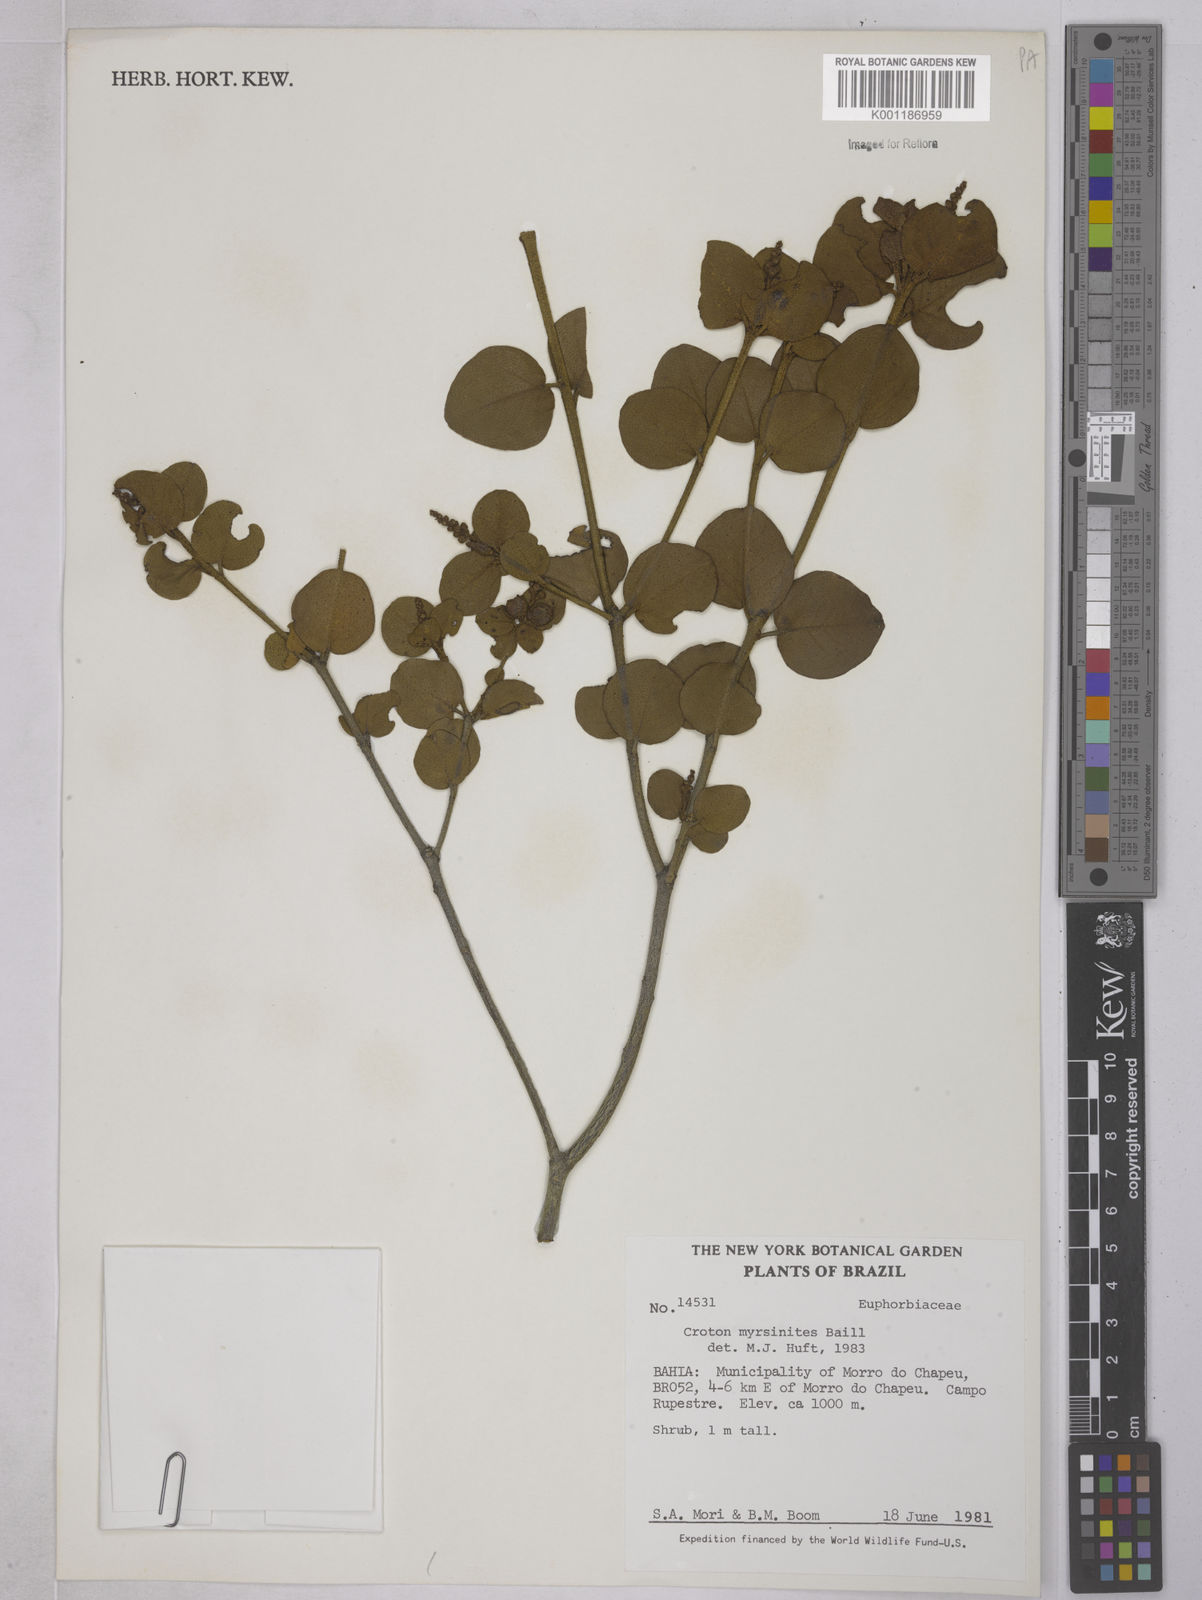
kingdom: Plantae
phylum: Tracheophyta
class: Magnoliopsida
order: Malpighiales
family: Euphorbiaceae
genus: Croton
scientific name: Croton myrsinites
